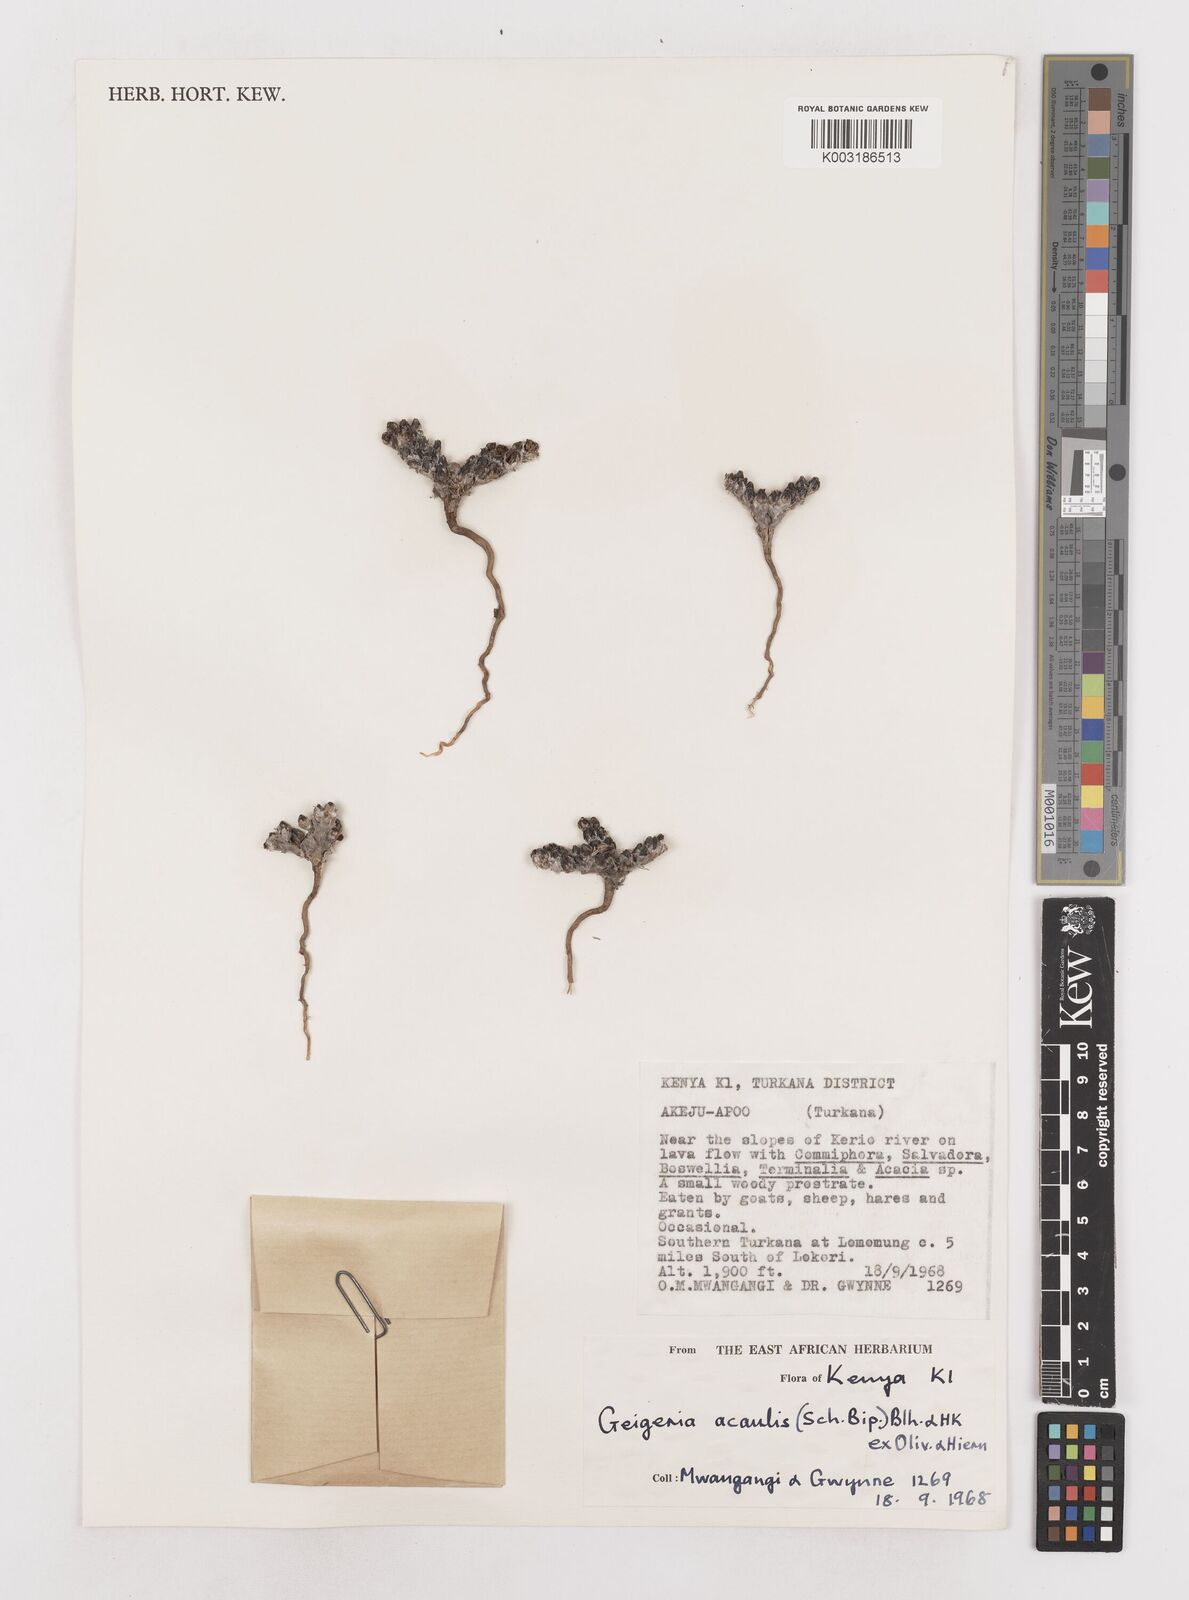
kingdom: Plantae
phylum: Tracheophyta
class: Magnoliopsida
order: Asterales
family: Asteraceae
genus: Geigeria
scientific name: Geigeria acaulis
